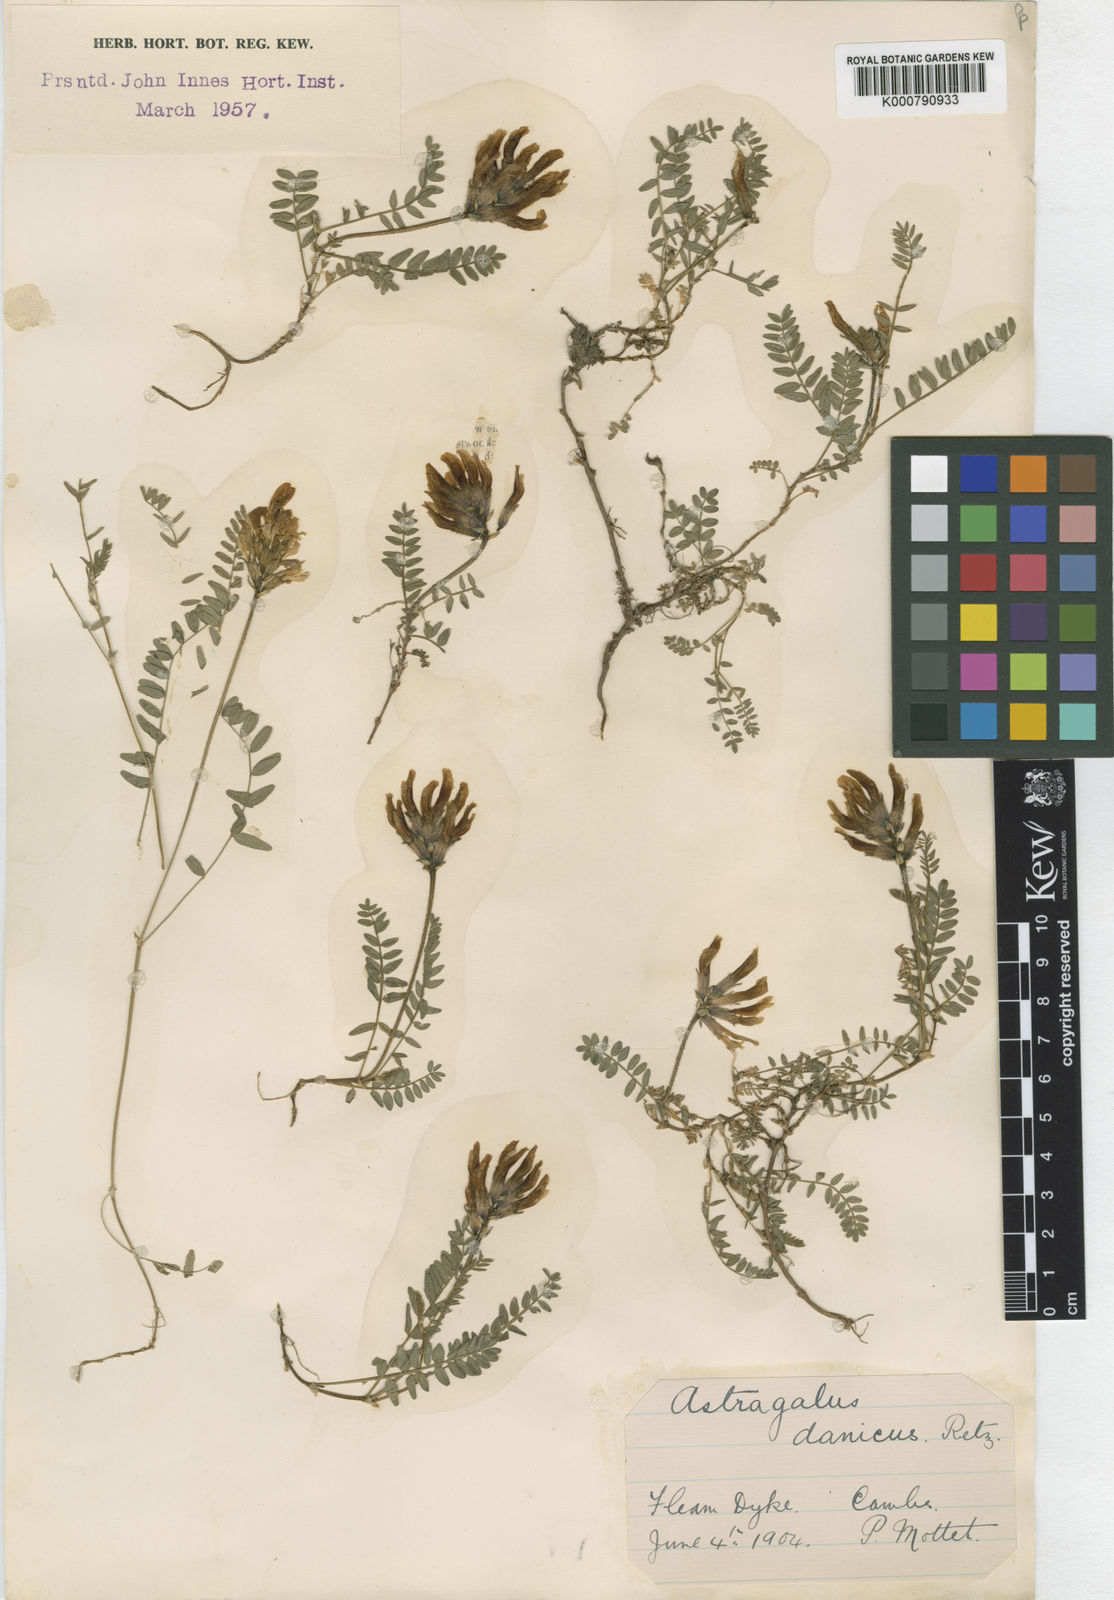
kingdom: Plantae
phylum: Tracheophyta
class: Magnoliopsida
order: Fabales
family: Fabaceae
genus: Astragalus
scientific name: Astragalus danicus
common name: Purple milk-vetch
